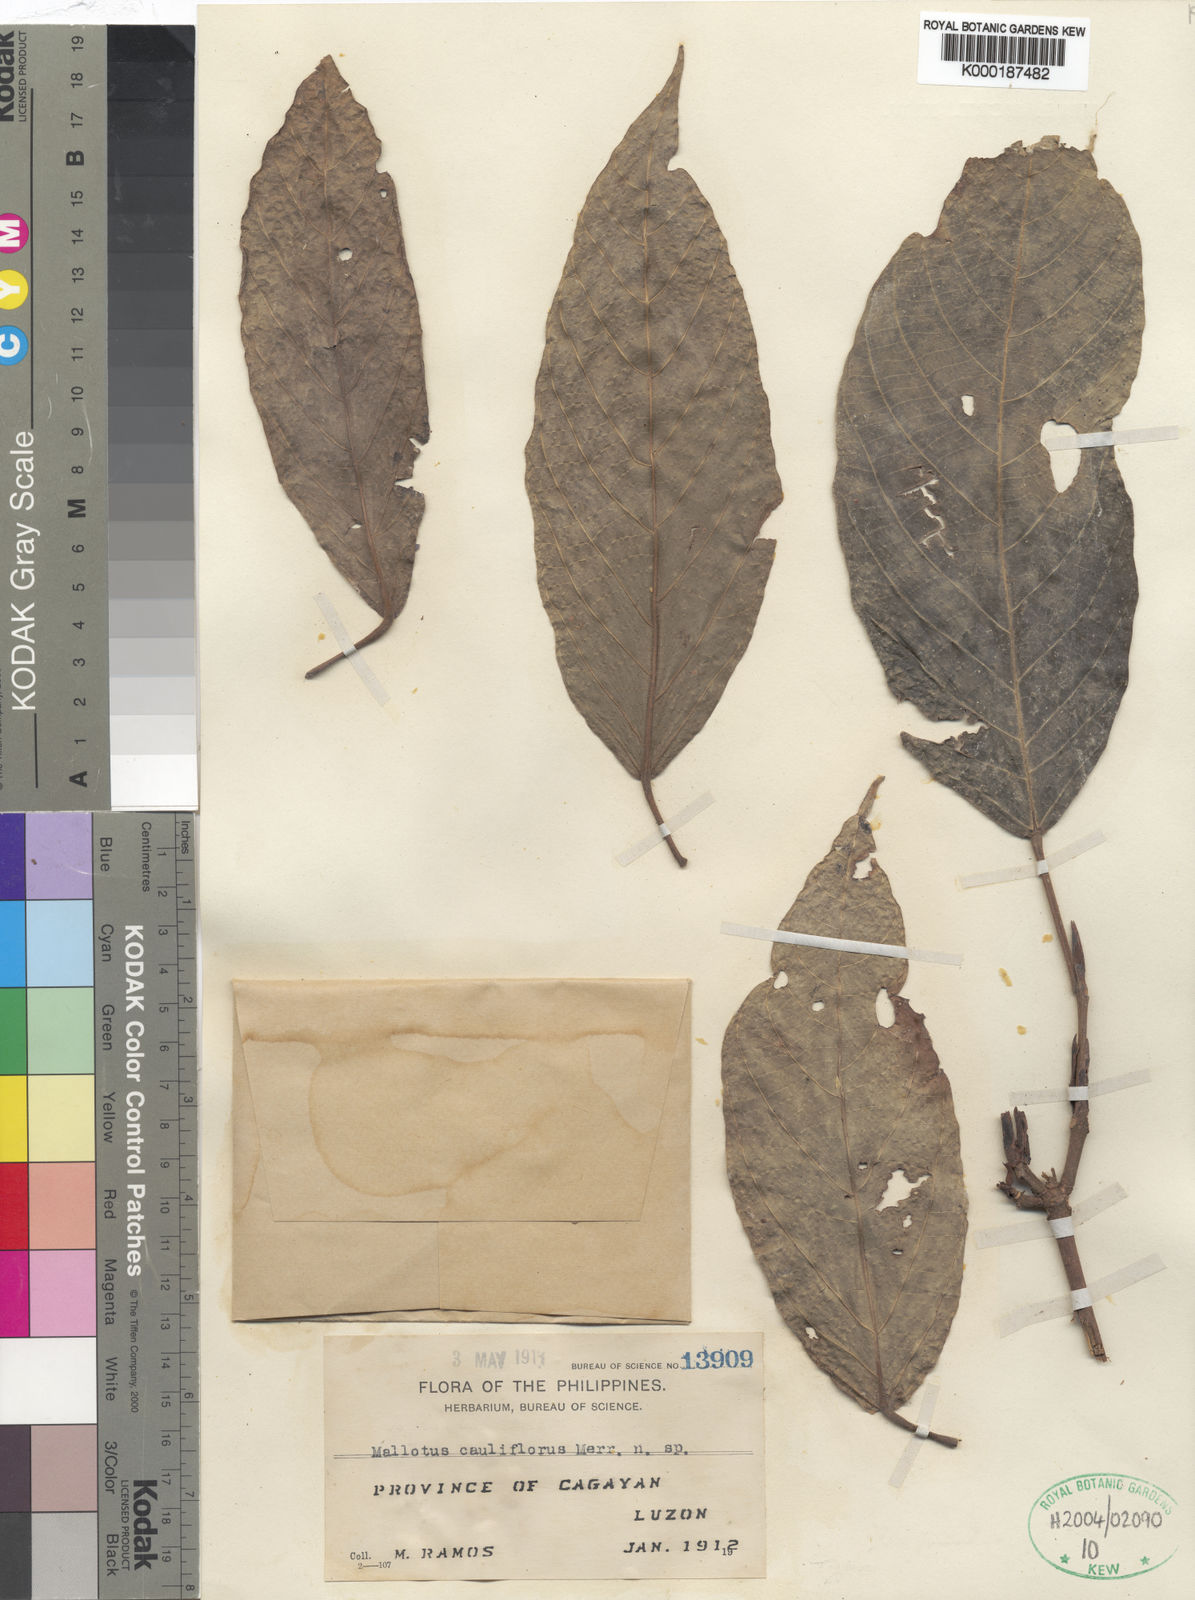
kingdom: Plantae
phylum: Tracheophyta
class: Magnoliopsida
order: Malpighiales
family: Euphorbiaceae
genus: Mallotus
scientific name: Mallotus cauliflorus
